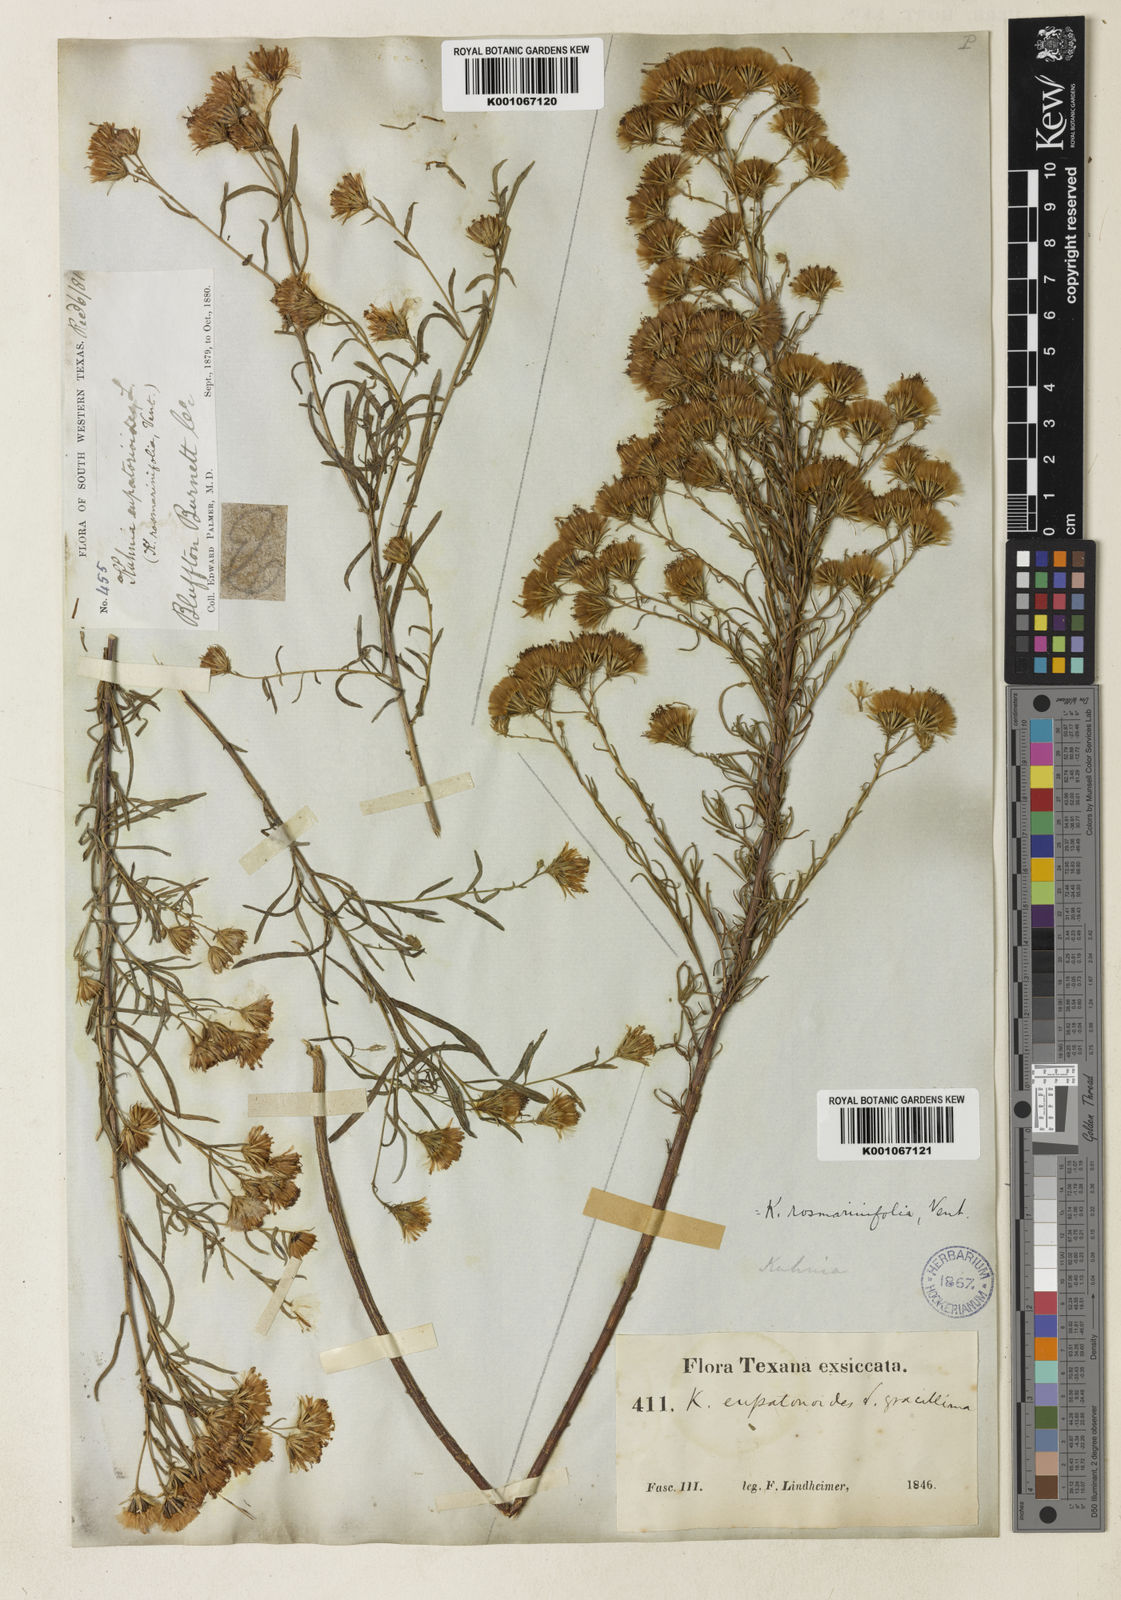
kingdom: Plantae
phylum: Tracheophyta
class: Magnoliopsida
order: Asterales
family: Asteraceae
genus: Brickellia
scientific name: Brickellia rosmarinifolia
